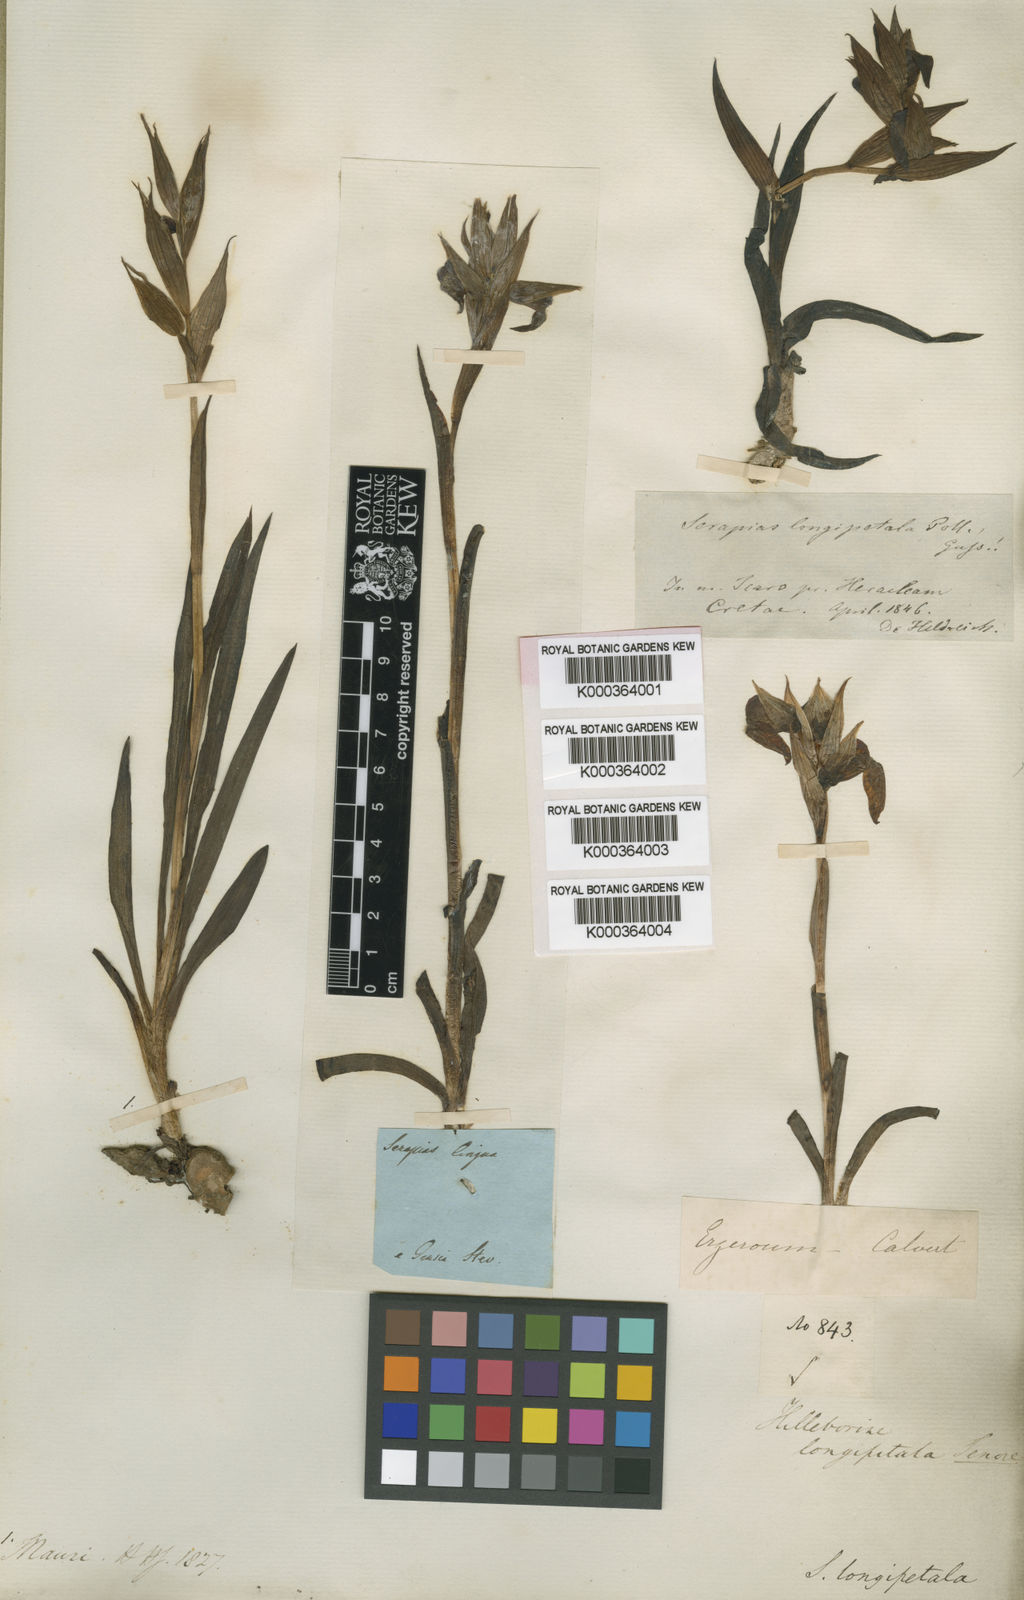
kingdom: Plantae
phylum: Tracheophyta
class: Liliopsida
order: Asparagales
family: Orchidaceae
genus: Serapias
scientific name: Serapias vomeracea
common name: Long-lipped tongue-orchid
